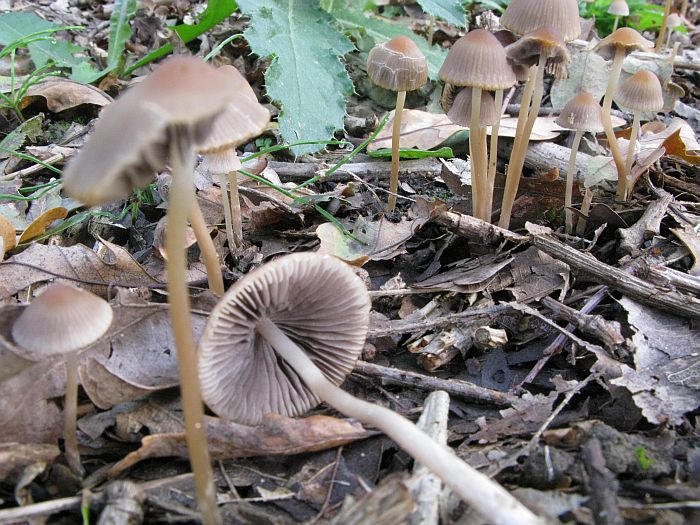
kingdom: Fungi
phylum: Basidiomycota
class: Agaricomycetes
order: Agaricales
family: Psathyrellaceae
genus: Psathyrella
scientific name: Psathyrella corrugis
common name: rødægget mørkhat
